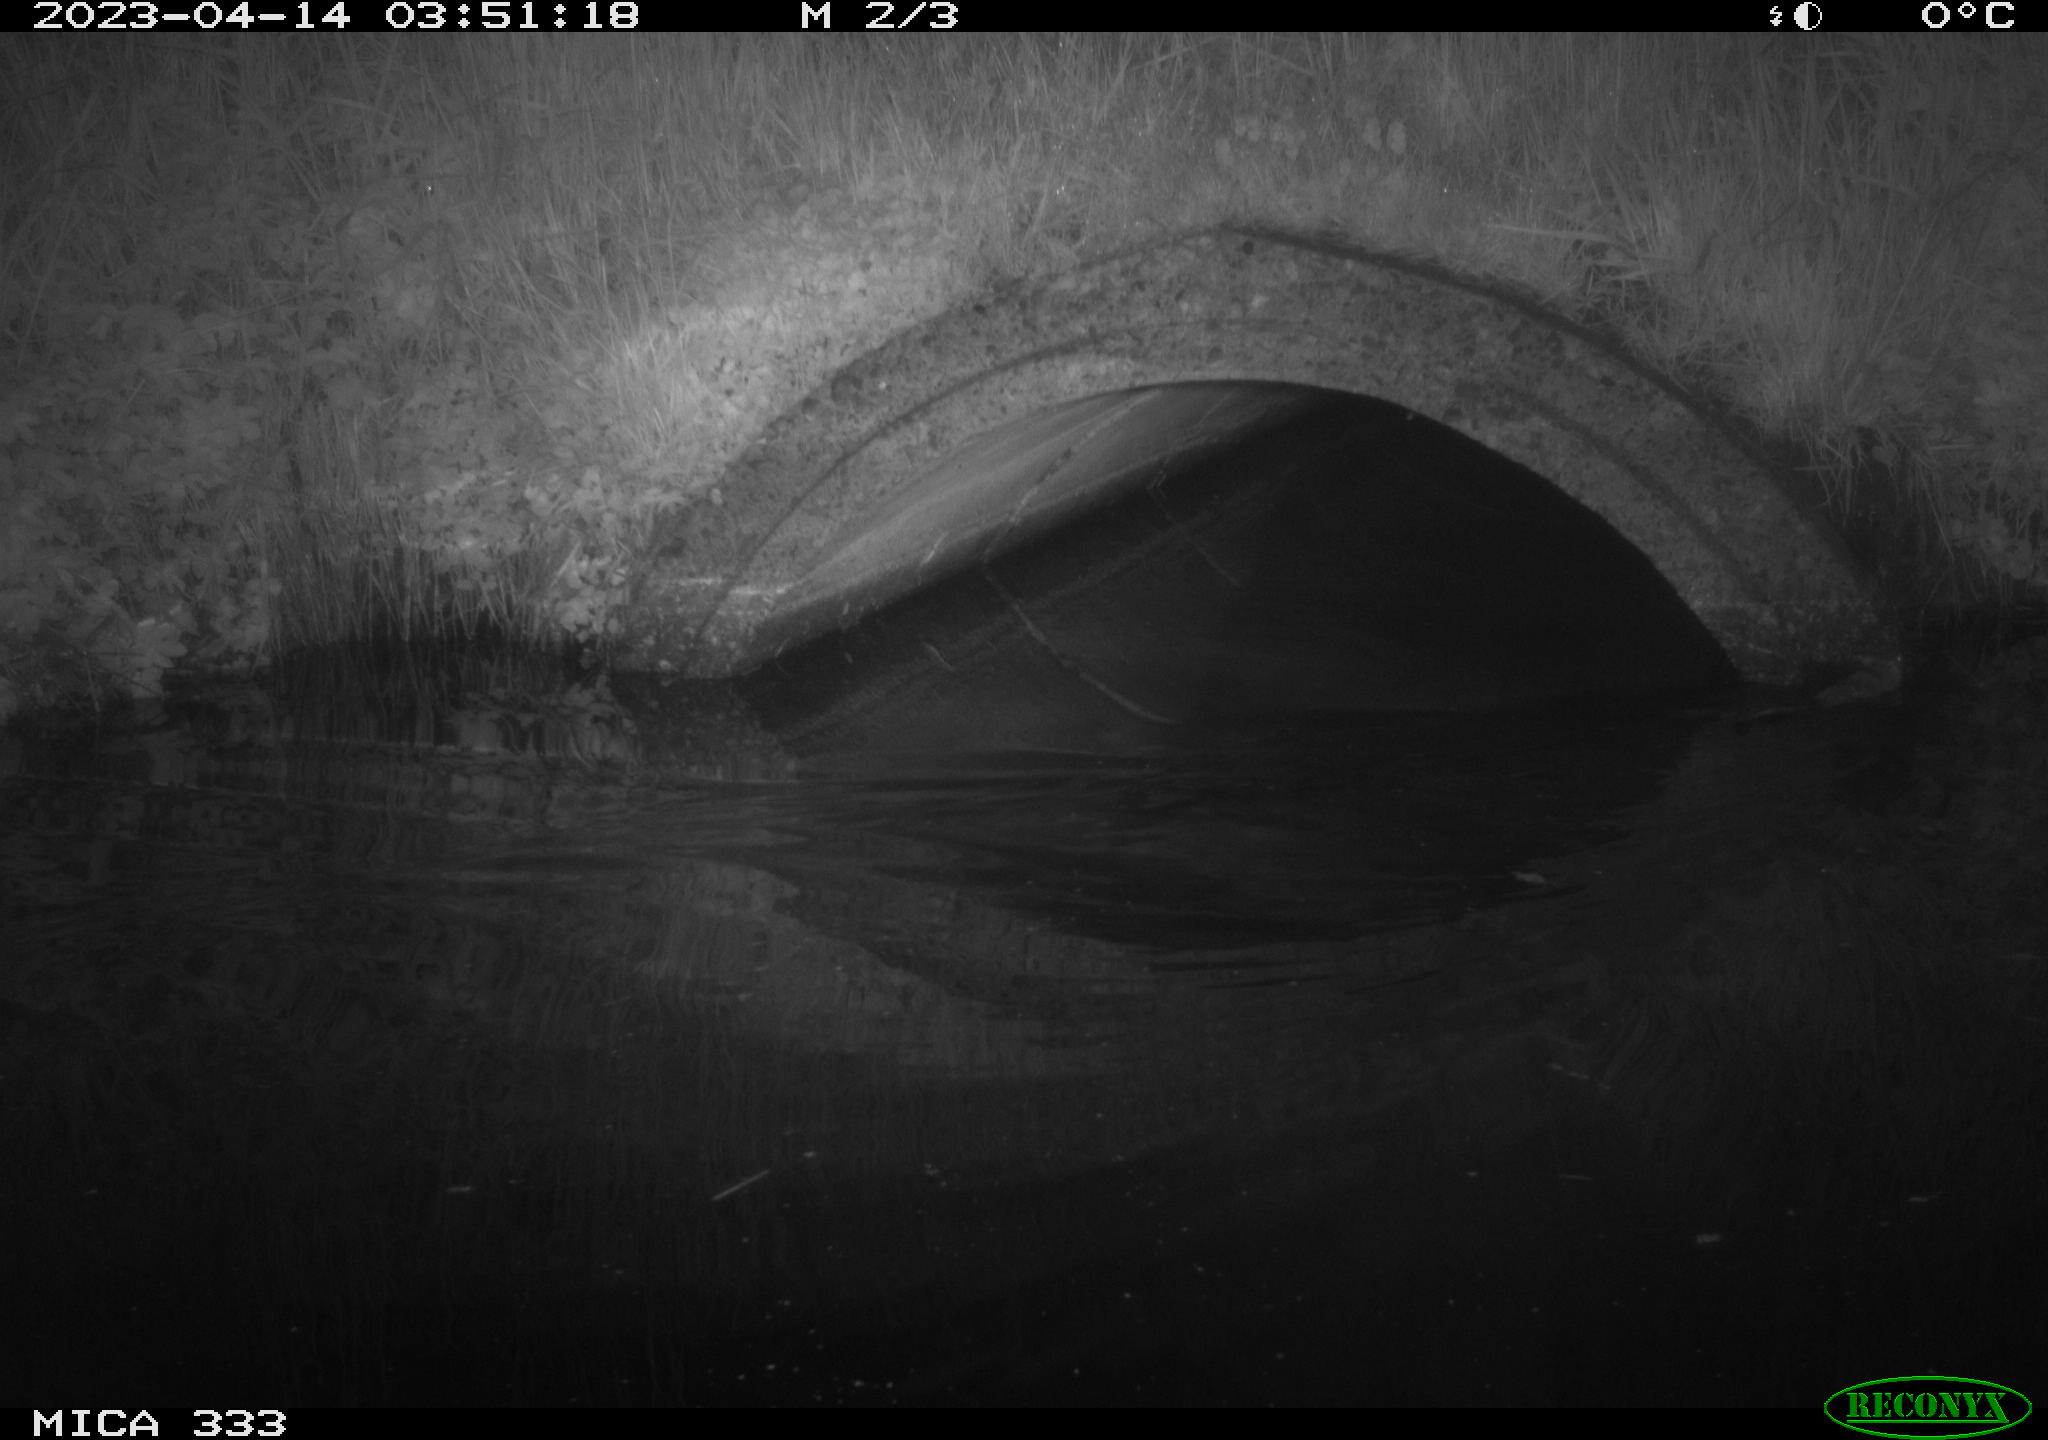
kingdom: Animalia
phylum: Chordata
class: Mammalia
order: Rodentia
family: Muridae
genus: Rattus
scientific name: Rattus norvegicus
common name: Brown rat
